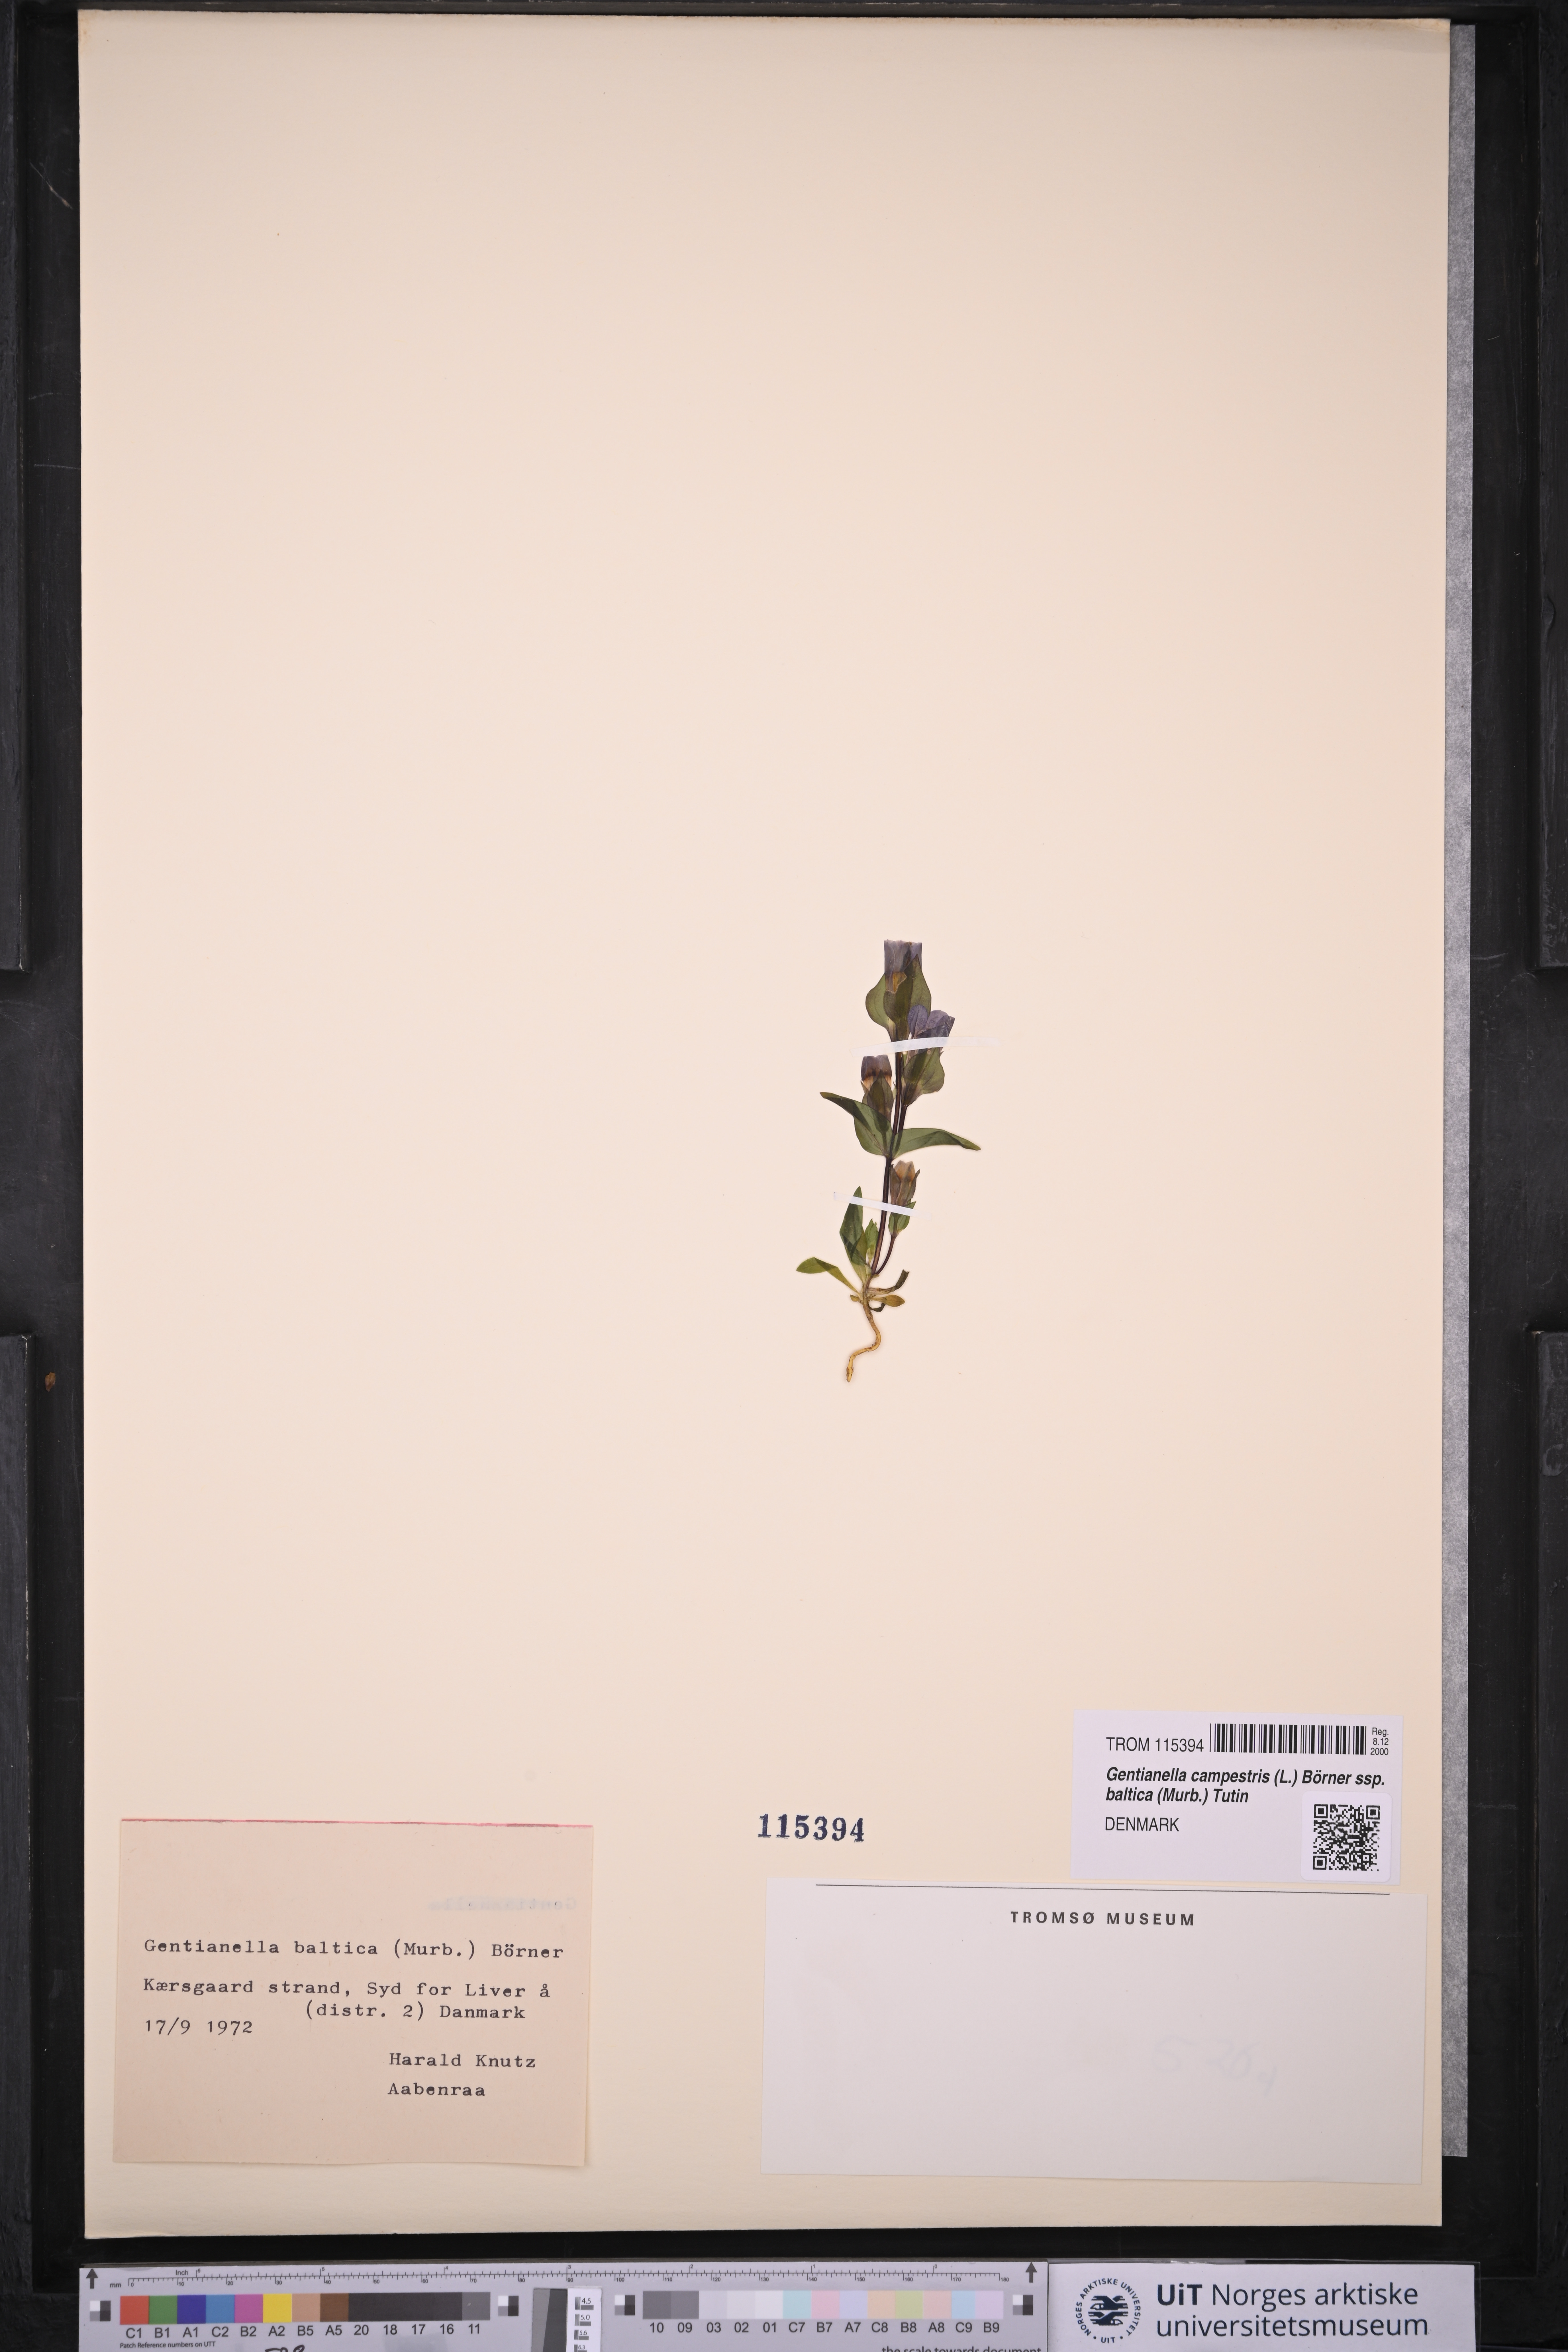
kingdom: Plantae
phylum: Tracheophyta
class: Magnoliopsida
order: Gentianales
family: Gentianaceae
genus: Gentianella
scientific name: Gentianella campestris
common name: Field gentian
